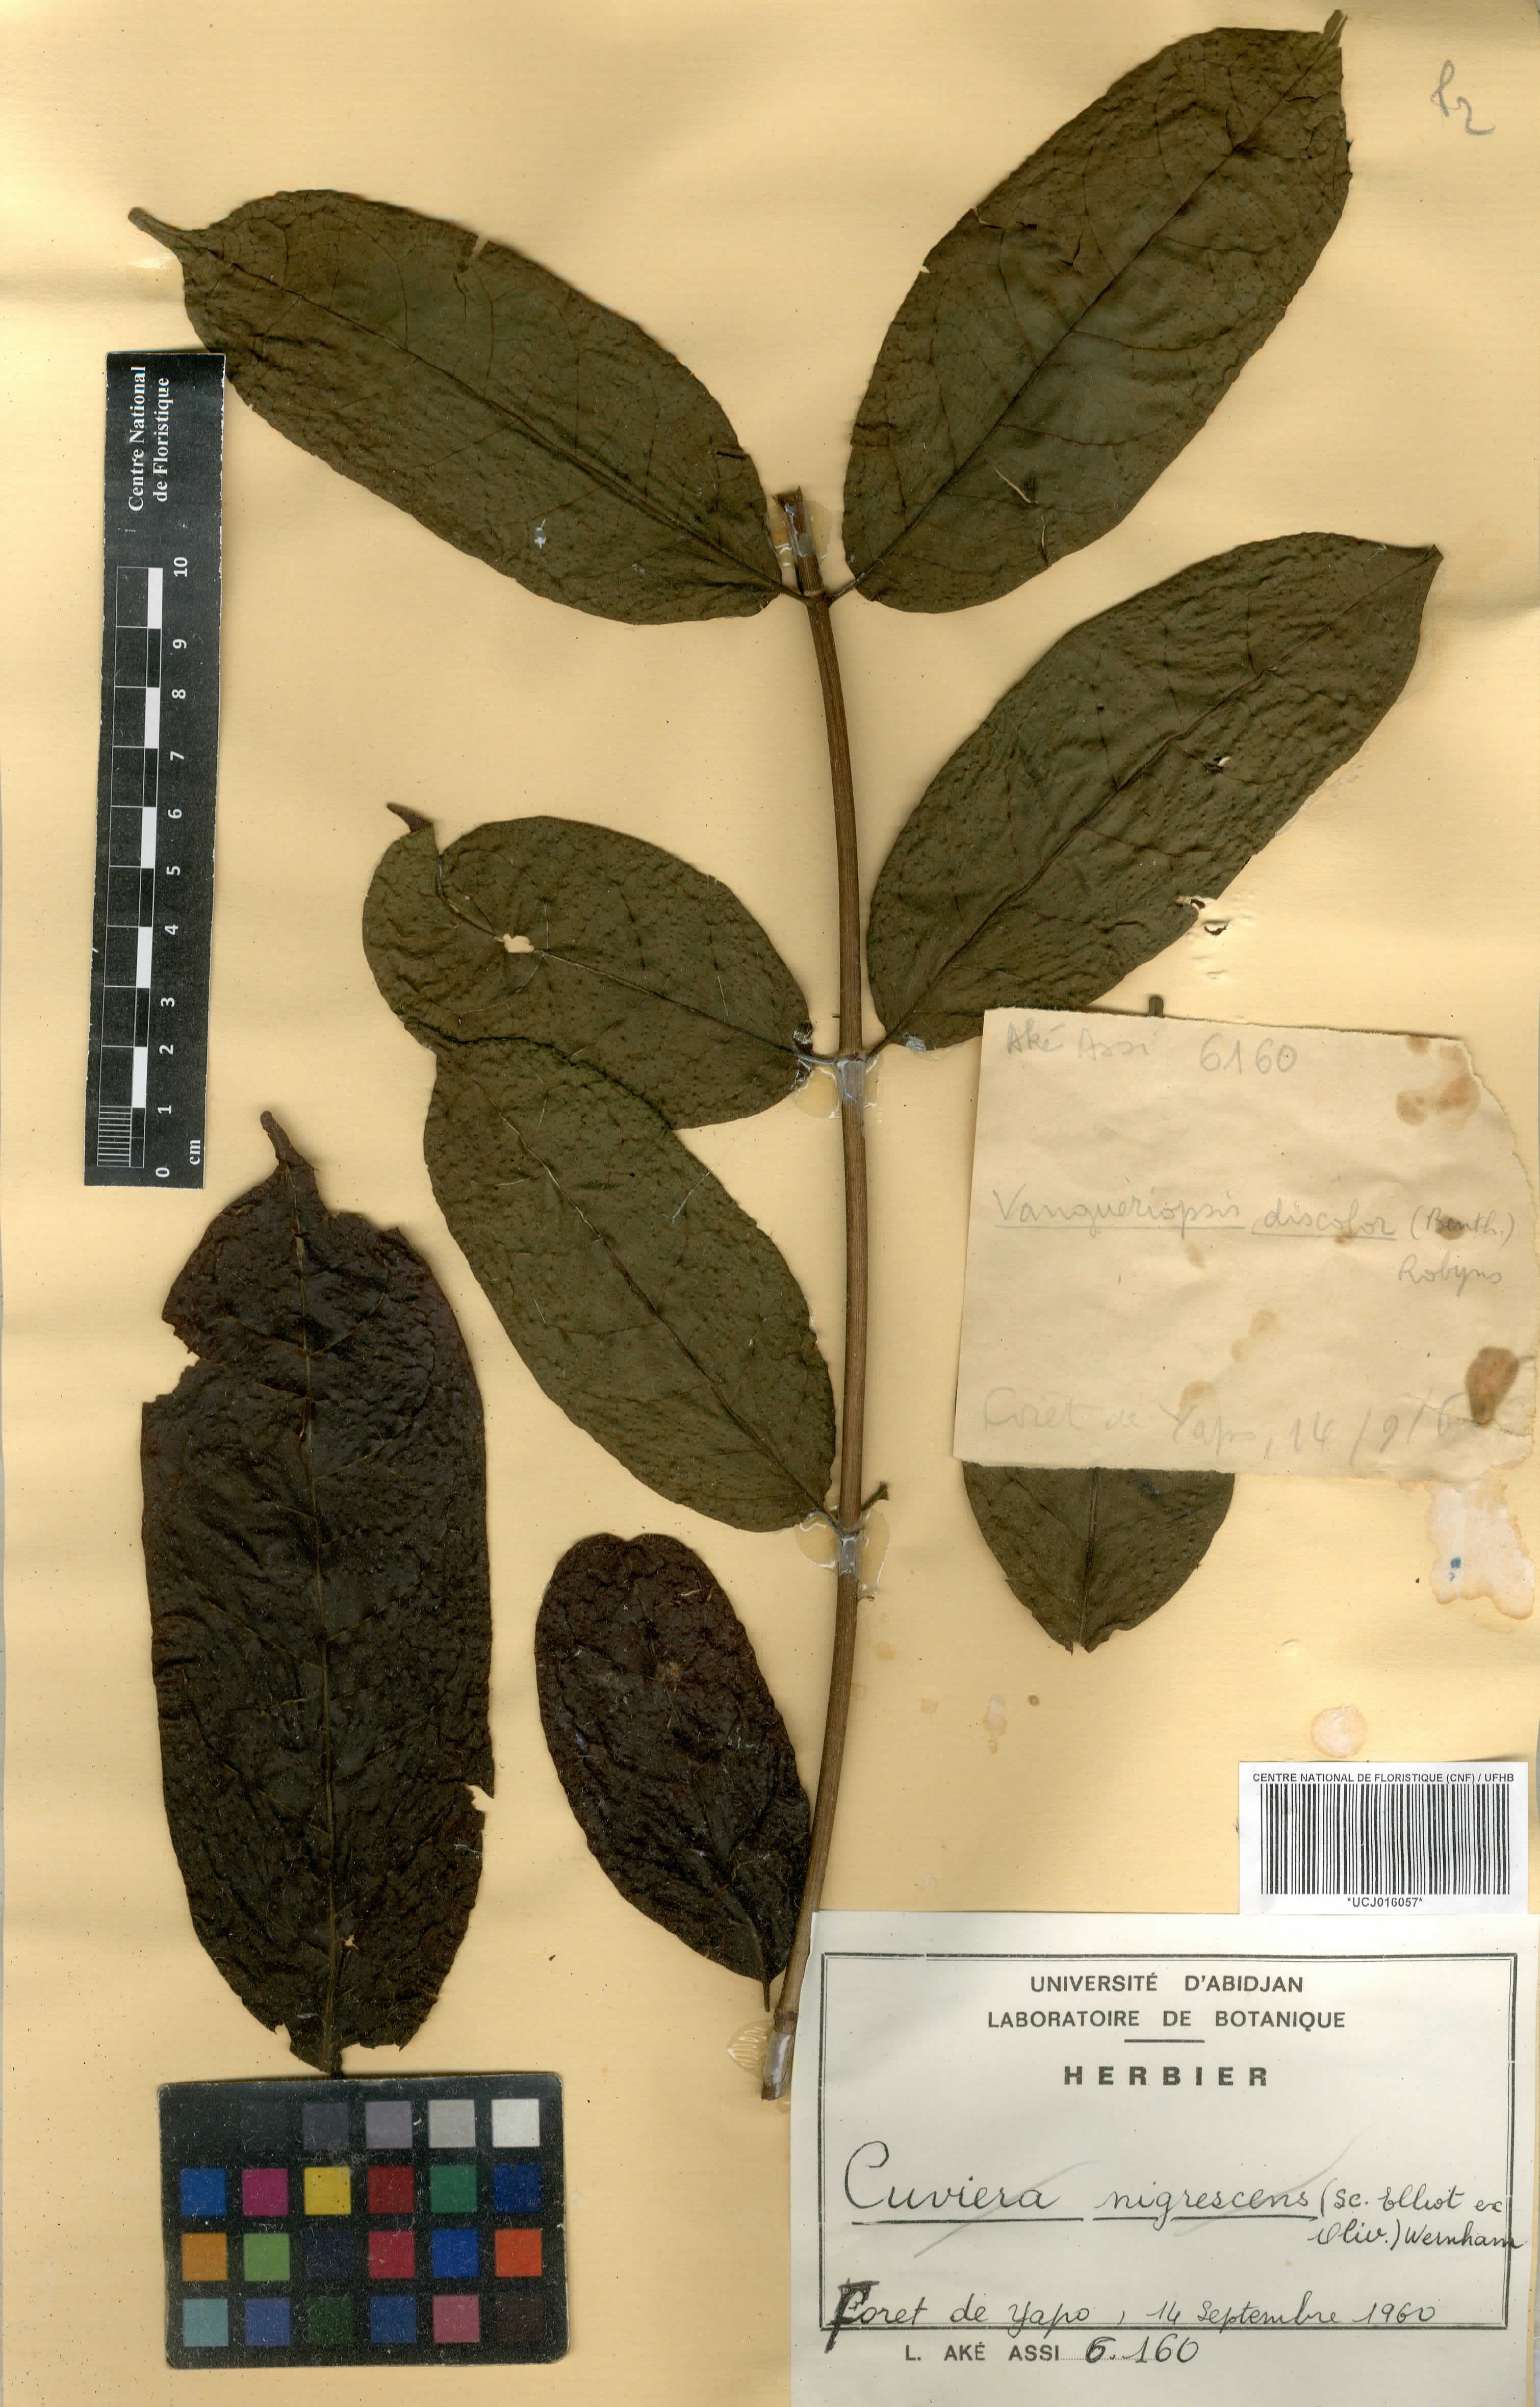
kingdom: Plantae
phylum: Tracheophyta
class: Magnoliopsida
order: Gentianales
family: Rubiaceae
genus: Vangueriopsis
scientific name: Vangueriopsis
